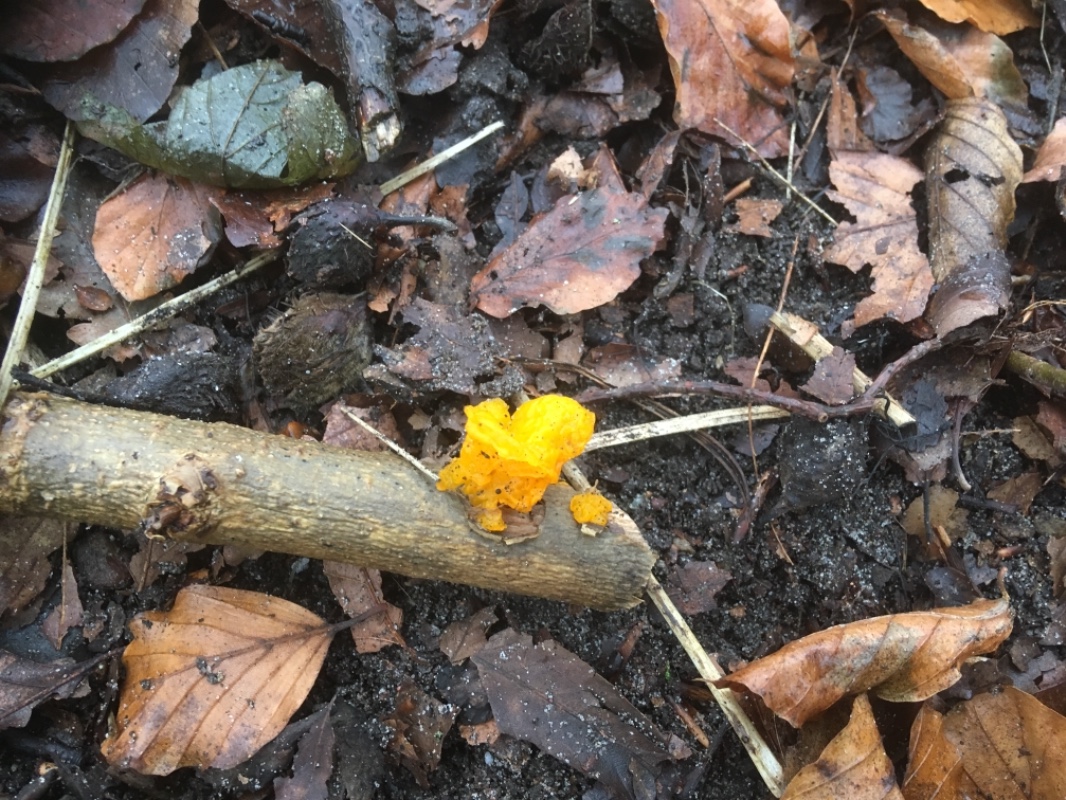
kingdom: Fungi
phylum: Basidiomycota
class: Tremellomycetes
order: Tremellales
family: Tremellaceae
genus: Tremella
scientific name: Tremella mesenterica
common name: gul bævresvamp
